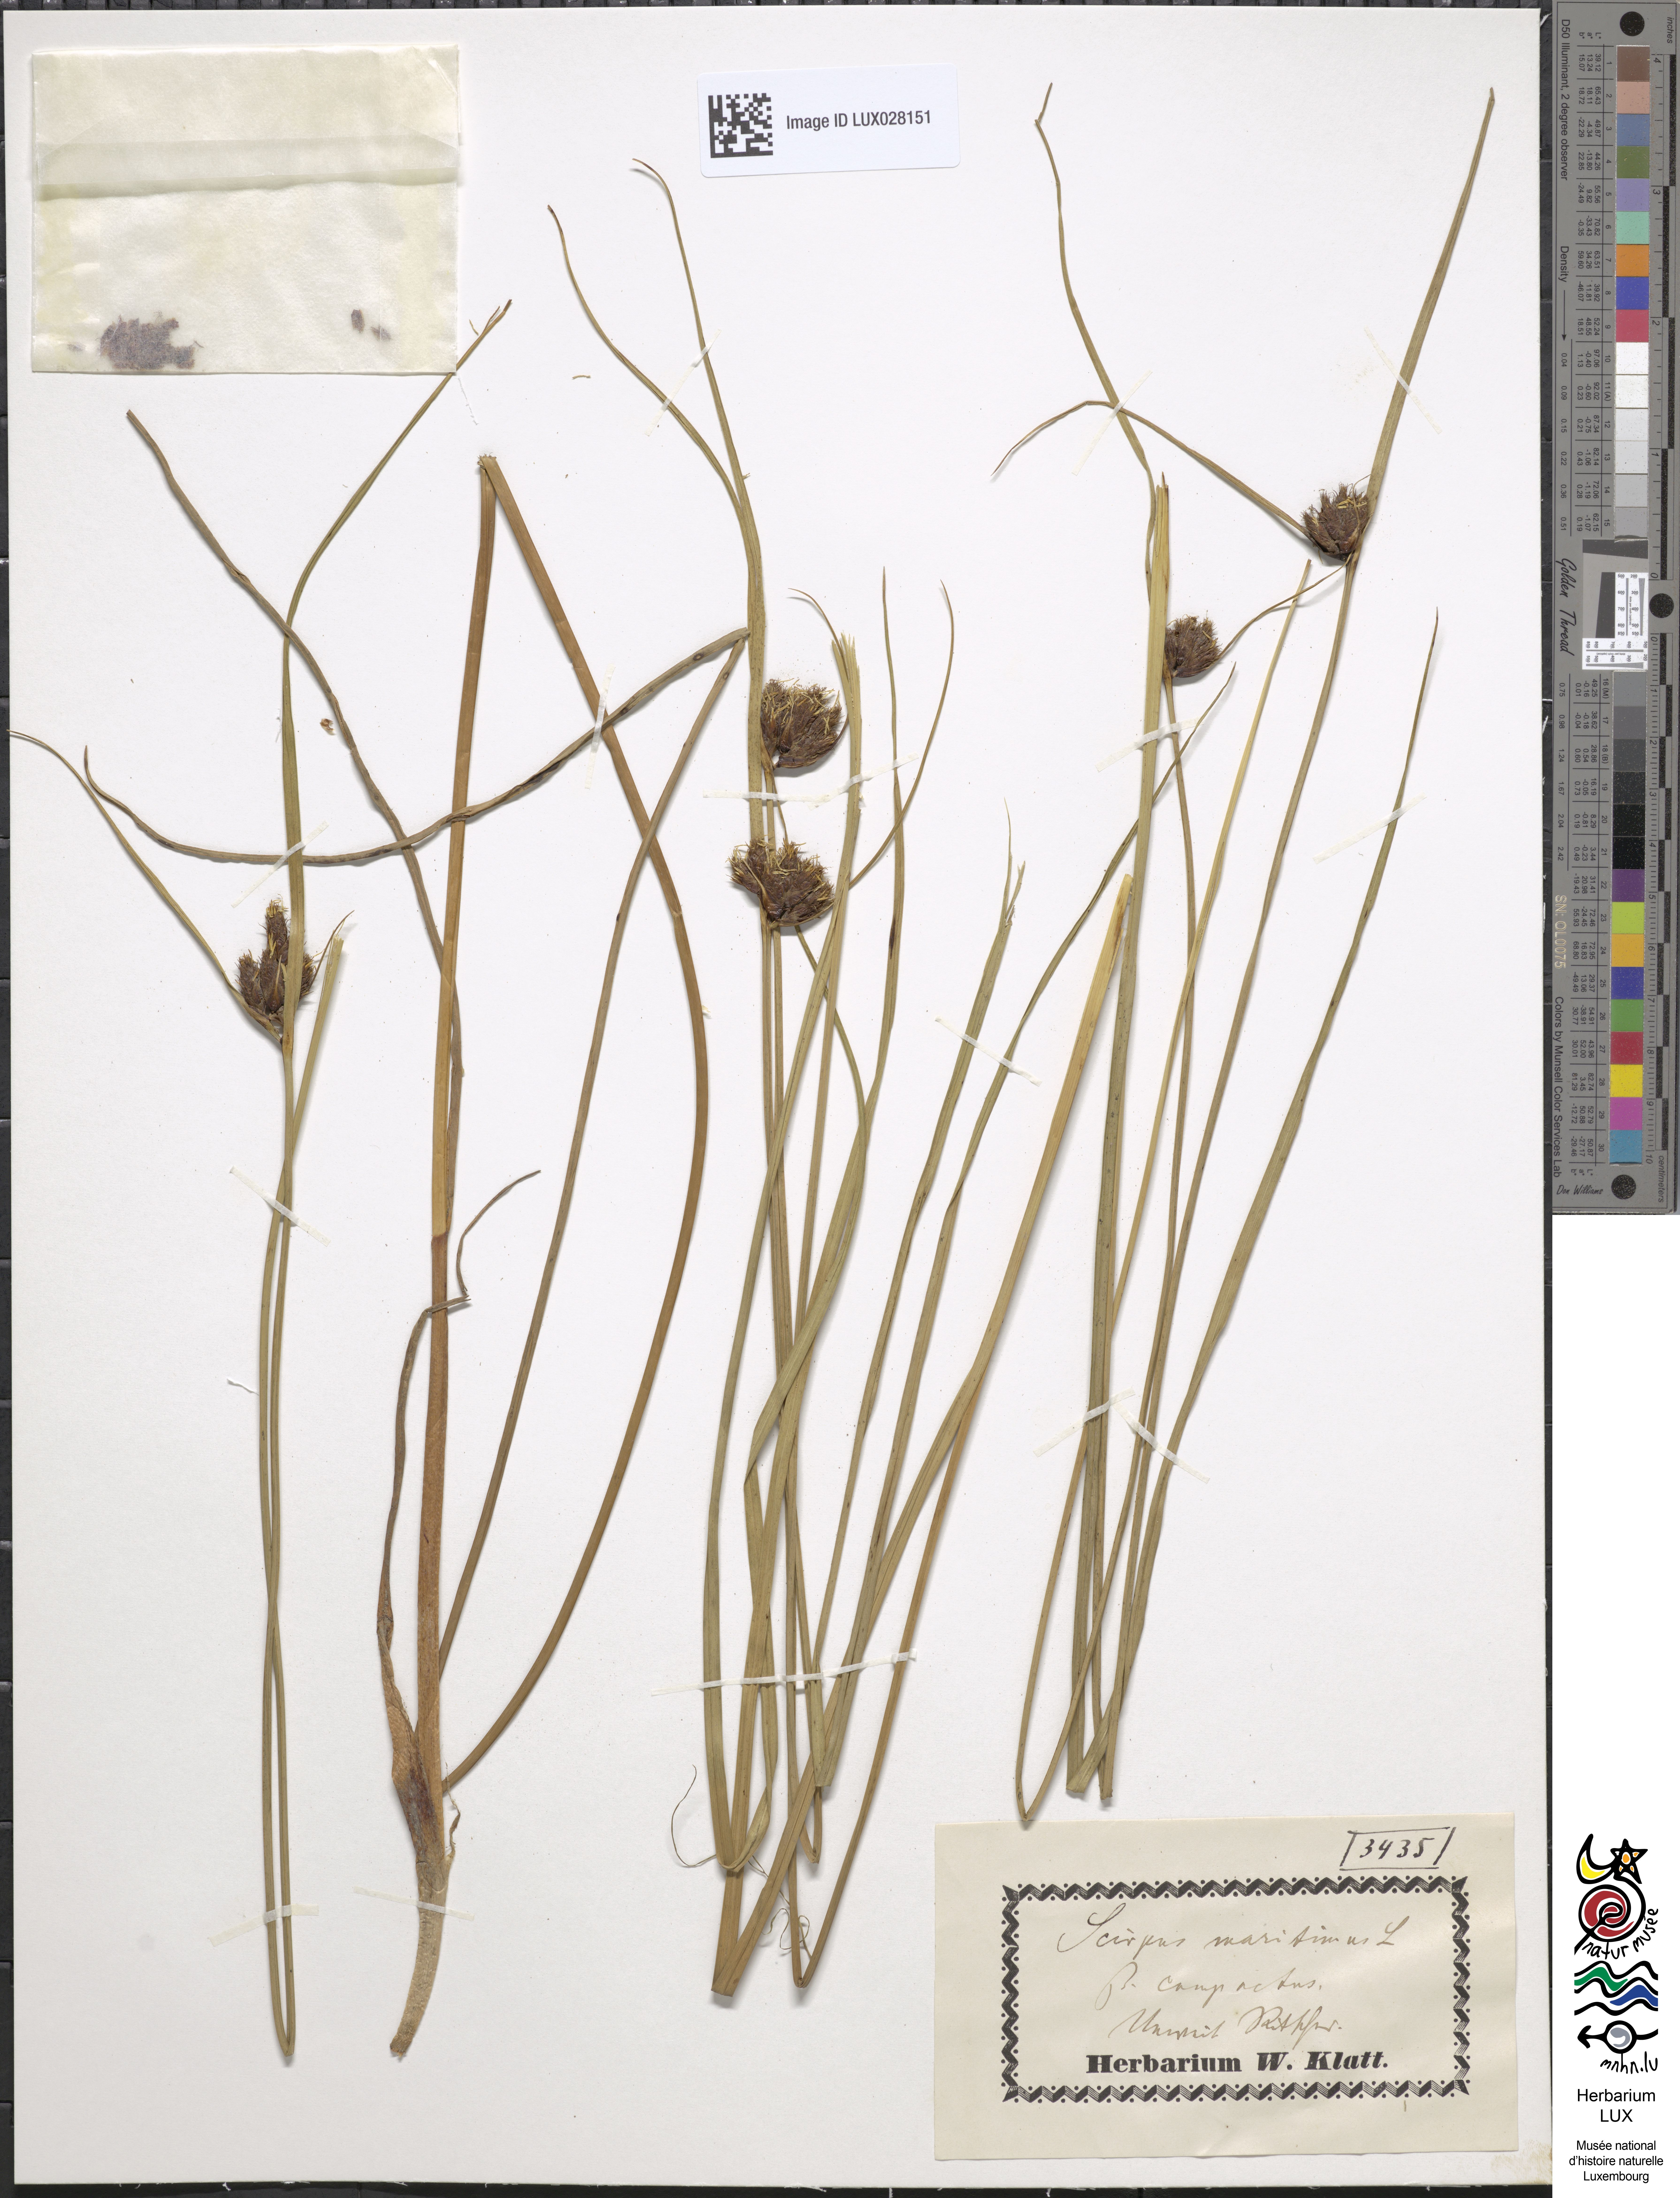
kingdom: Plantae
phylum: Tracheophyta
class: Liliopsida
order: Poales
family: Cyperaceae
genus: Bolboschoenus
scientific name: Bolboschoenus maritimus
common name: Sea club-rush
